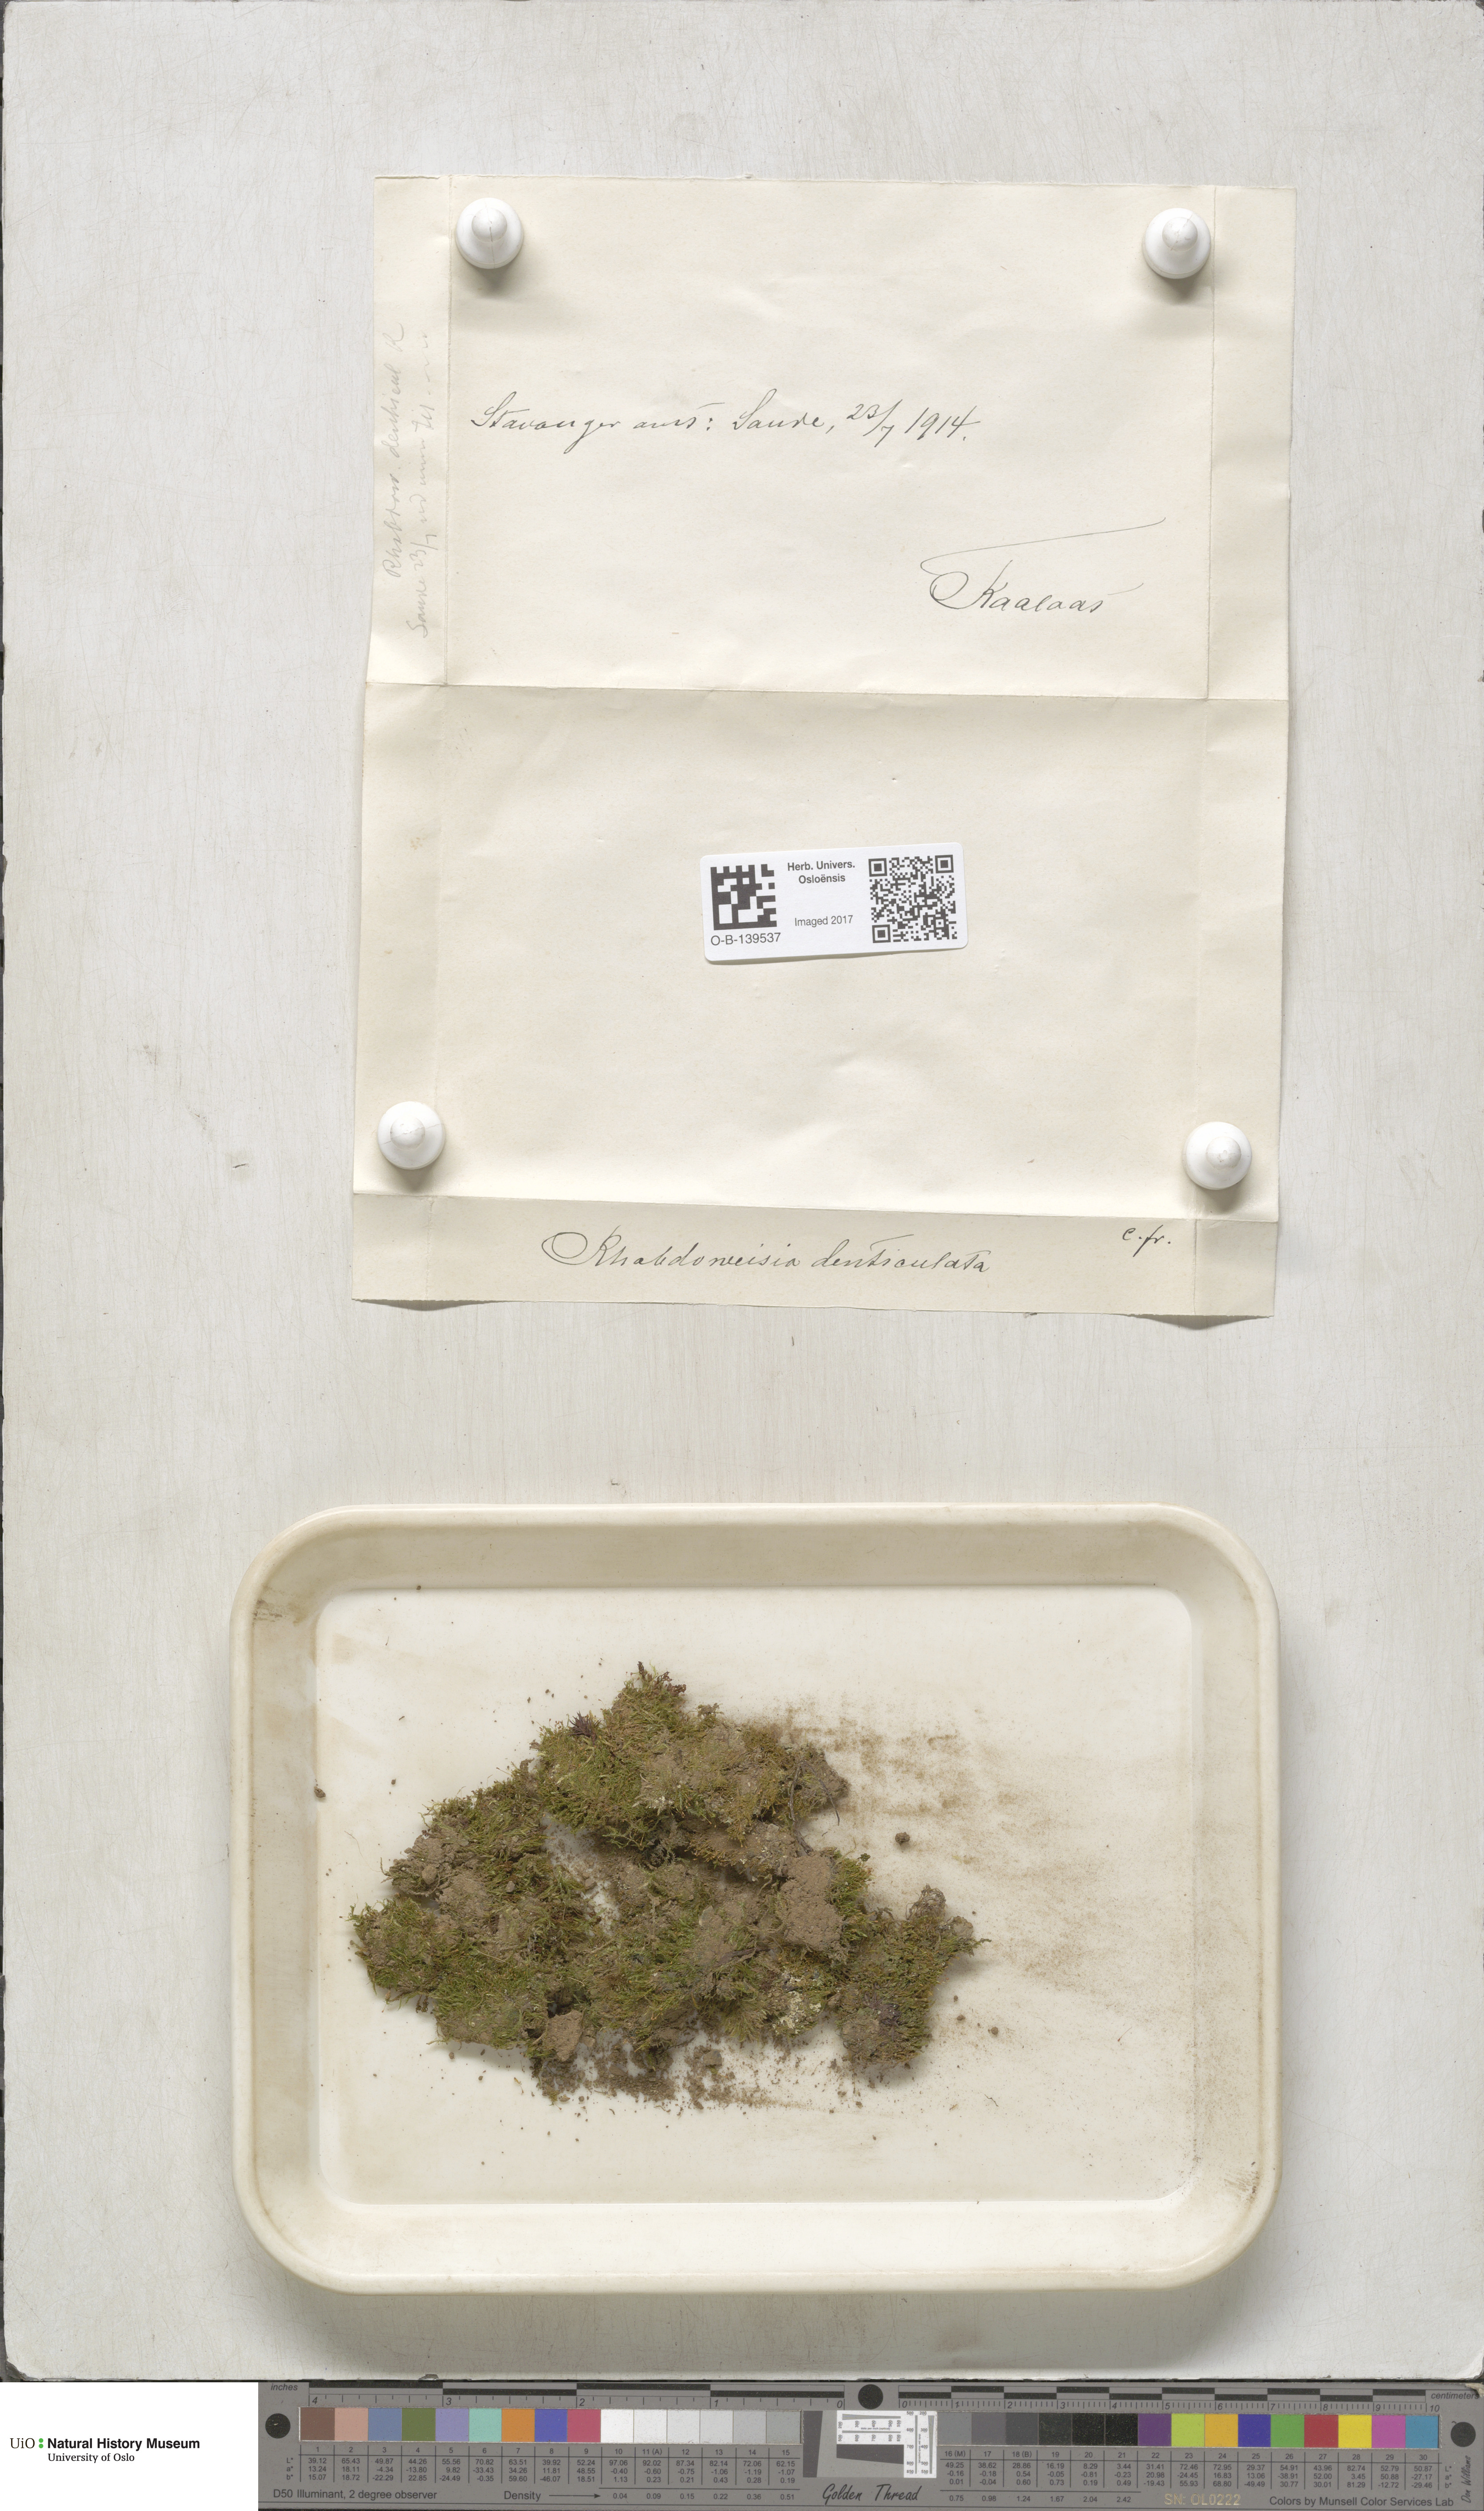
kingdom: Plantae
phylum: Bryophyta
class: Bryopsida
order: Dicranales
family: Rhabdoweisiaceae
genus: Rhabdoweisia
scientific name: Rhabdoweisia crispata
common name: Fine-toothed streak moss
